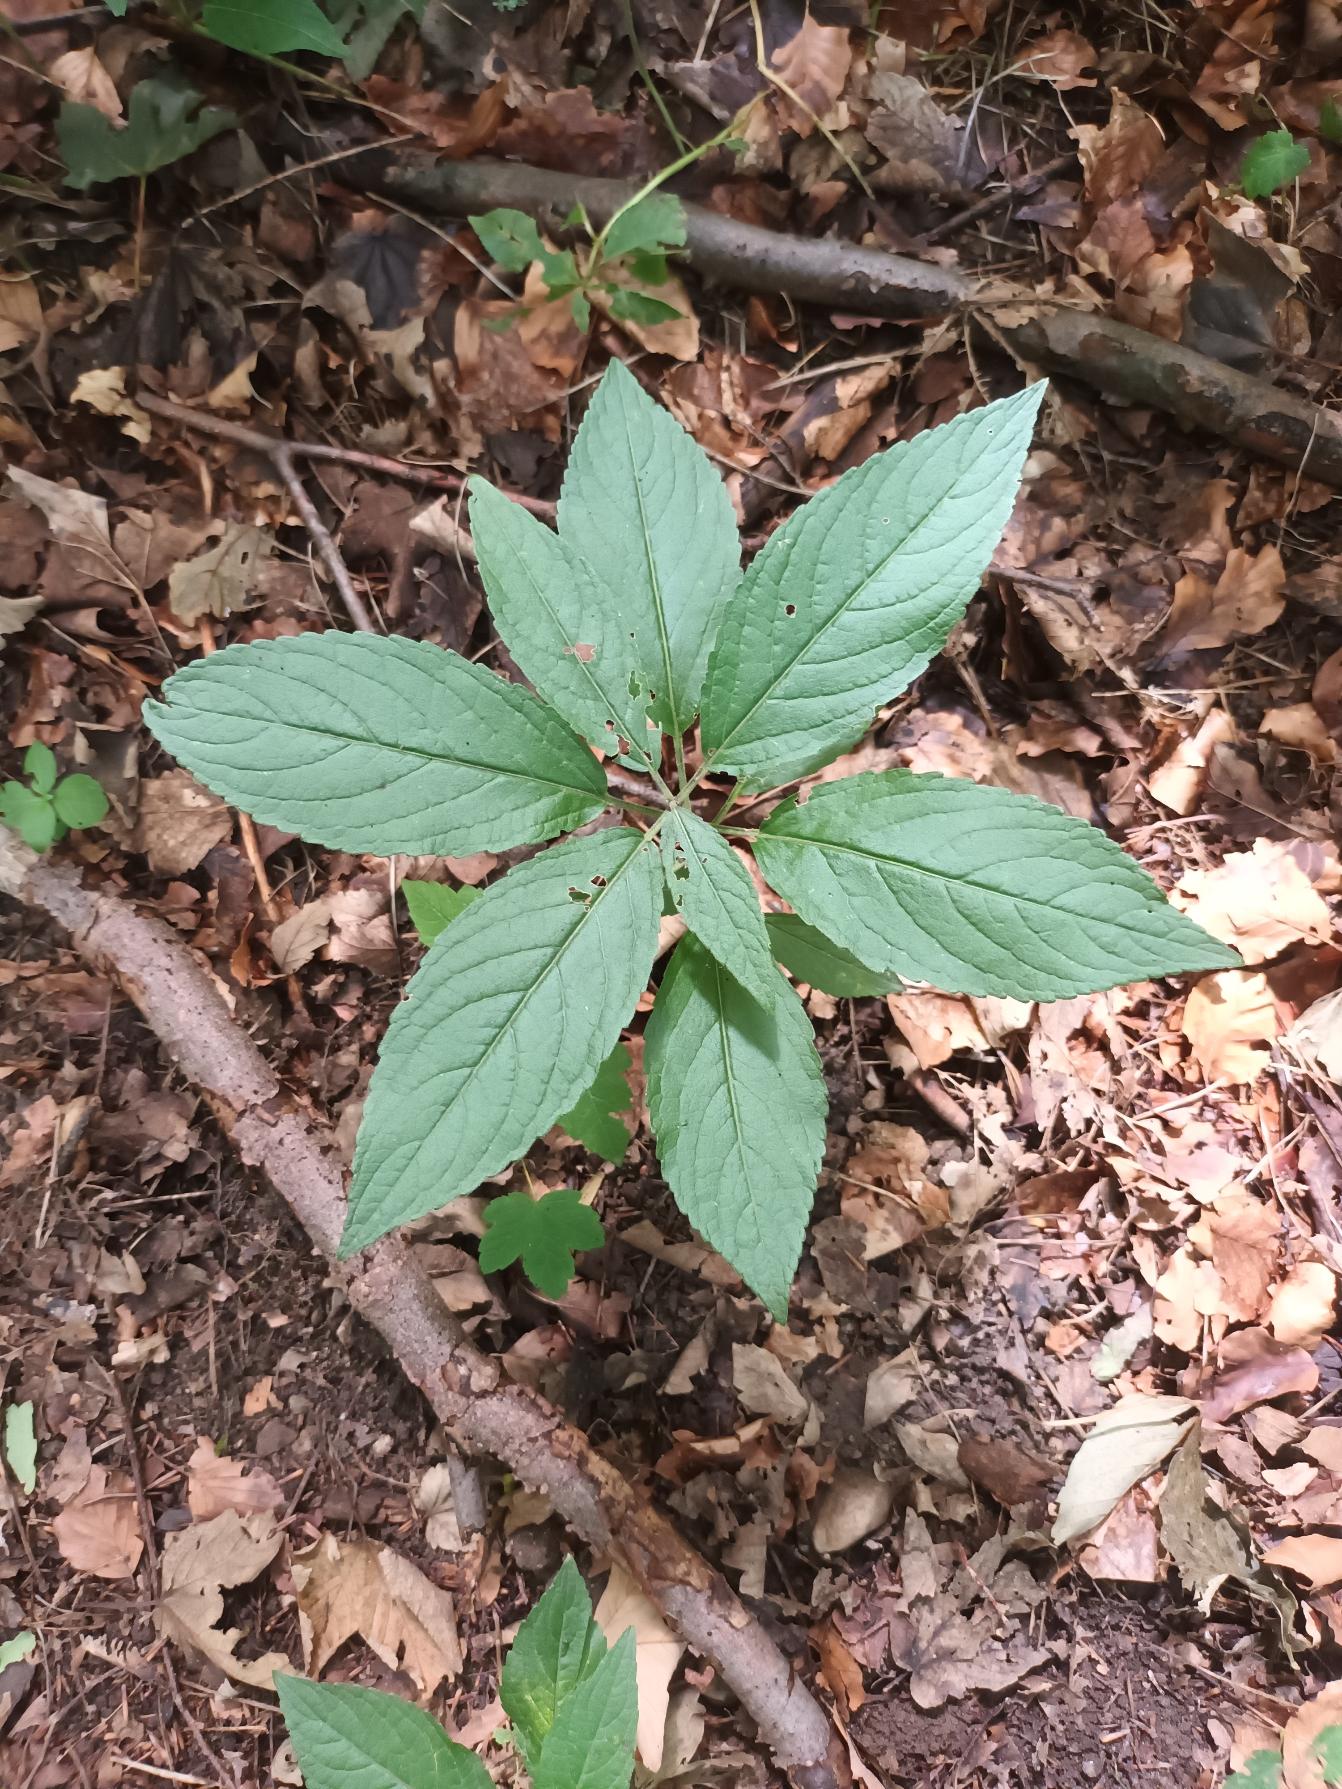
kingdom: Plantae
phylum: Tracheophyta
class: Magnoliopsida
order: Malpighiales
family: Euphorbiaceae
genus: Mercurialis
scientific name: Mercurialis perennis
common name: Almindelig bingelurt
